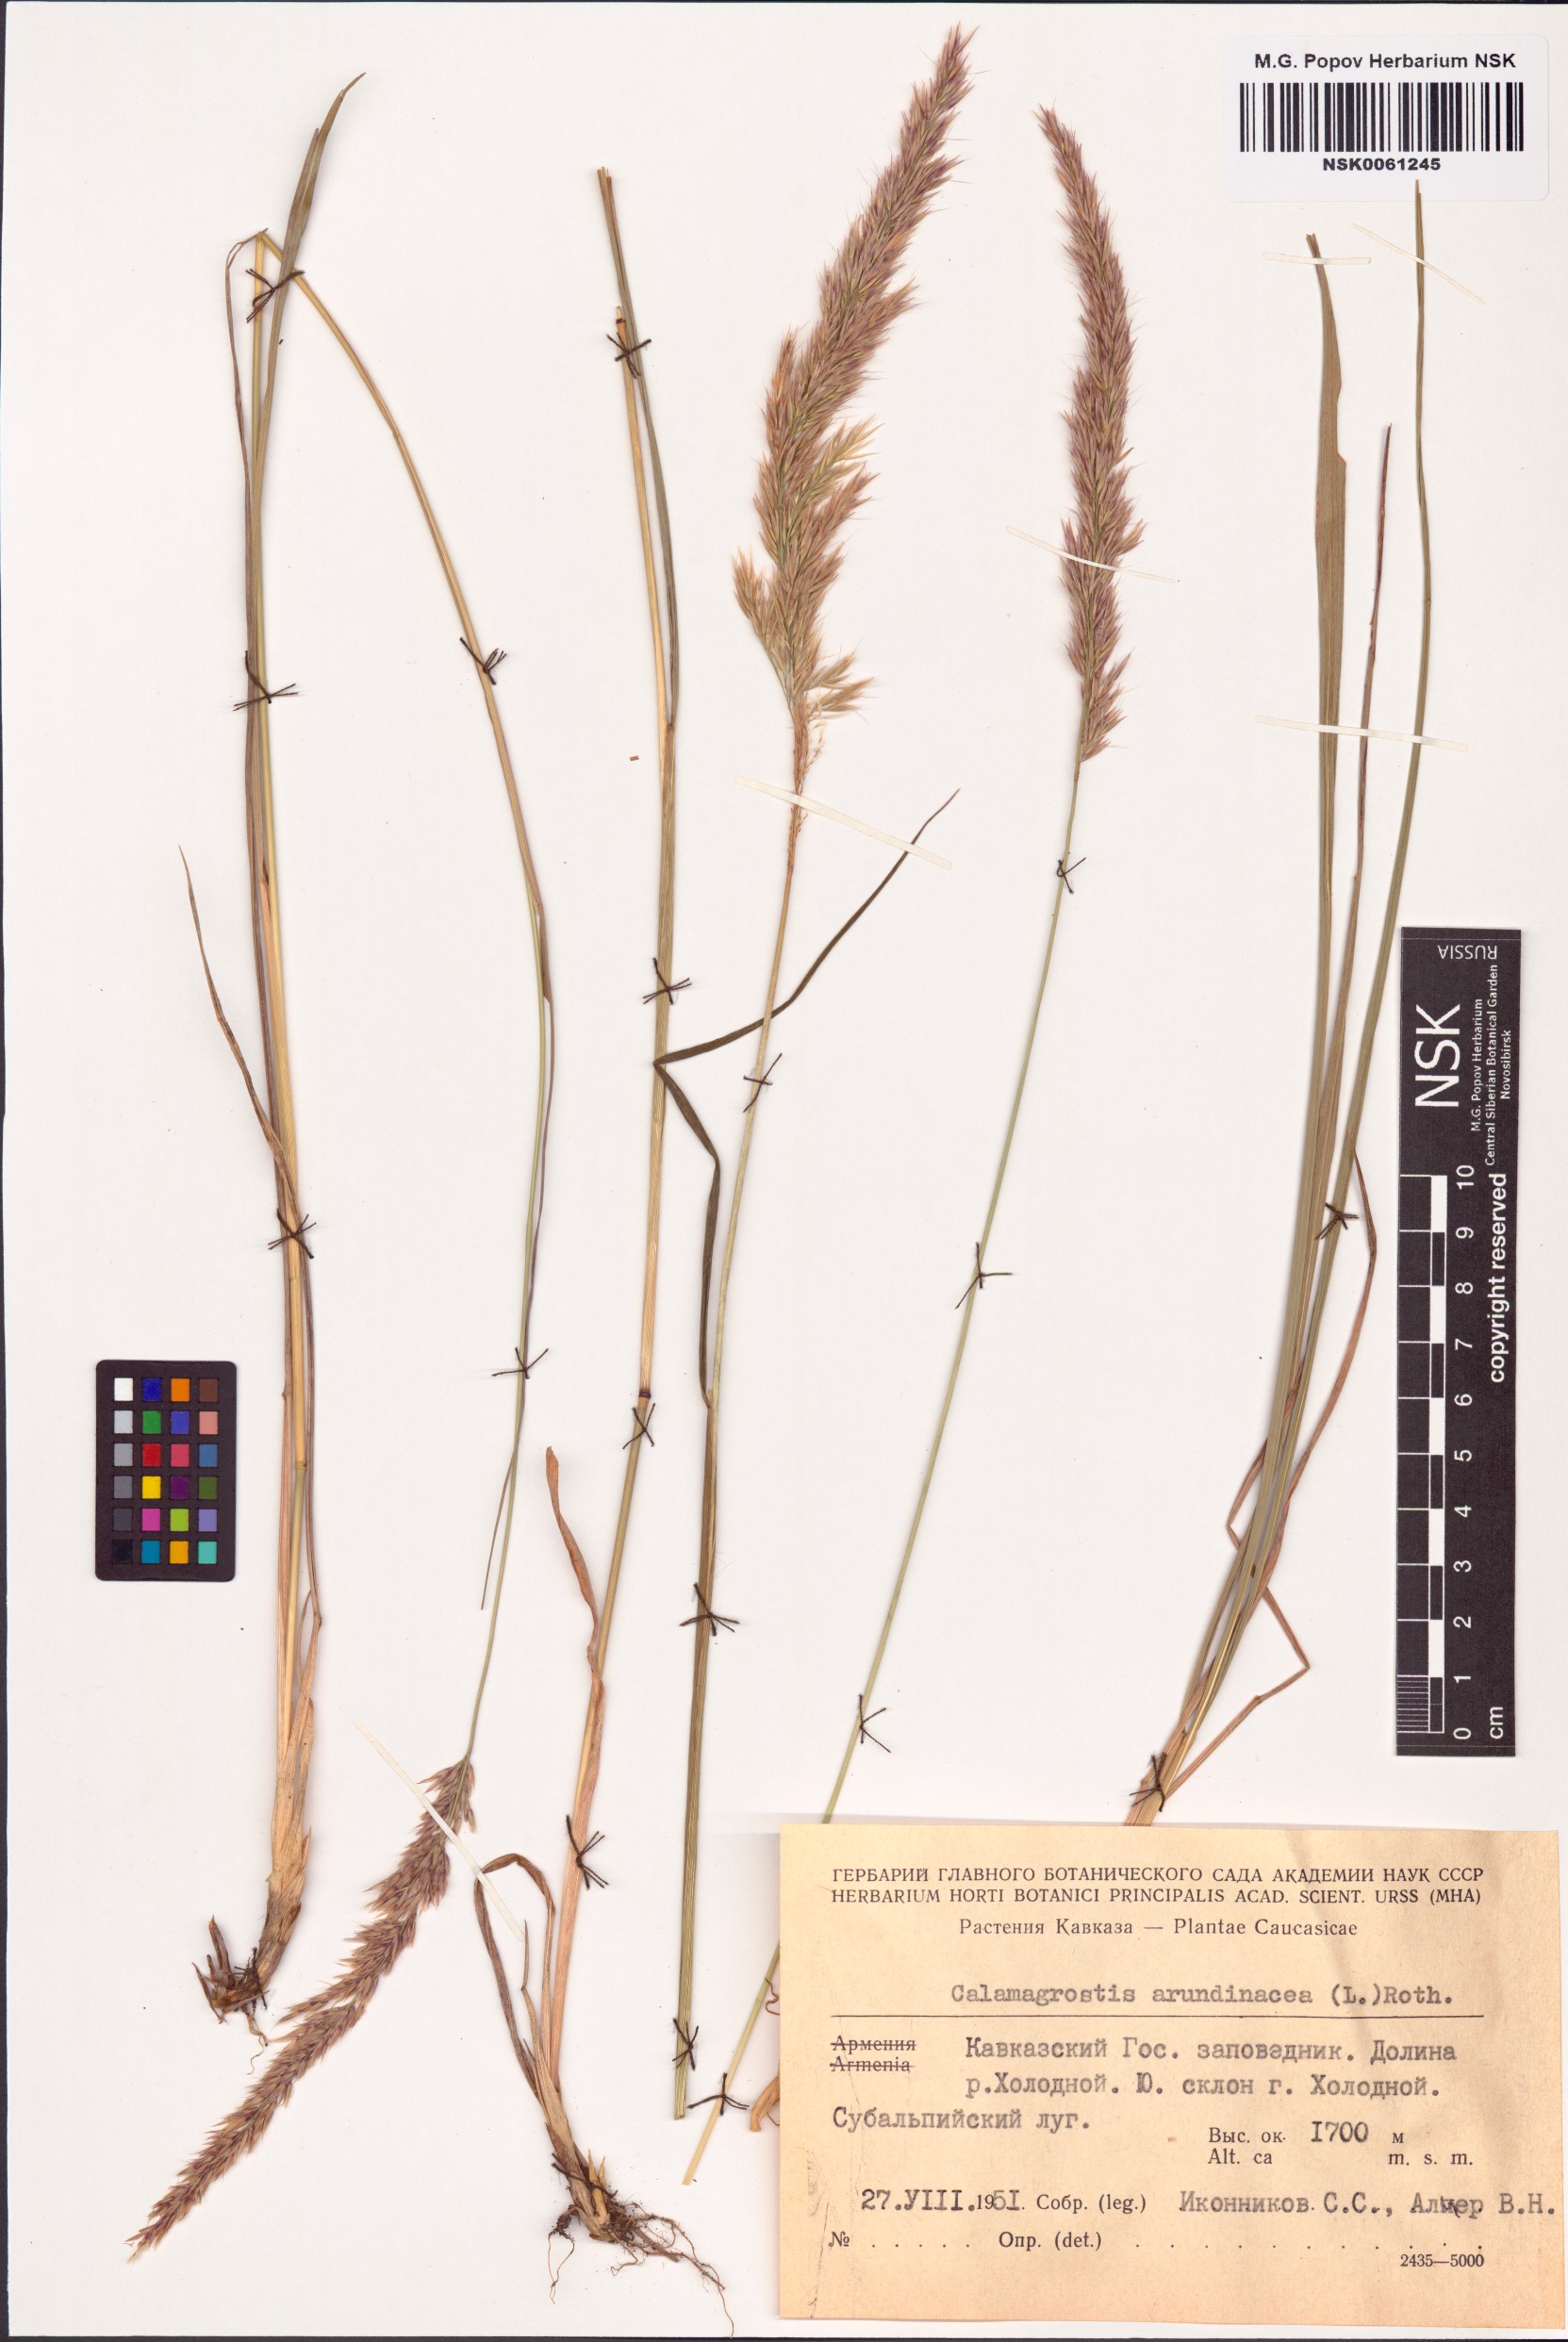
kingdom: Plantae
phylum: Tracheophyta
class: Liliopsida
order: Poales
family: Poaceae
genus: Calamagrostis
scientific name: Calamagrostis arundinacea
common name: Metskastik
